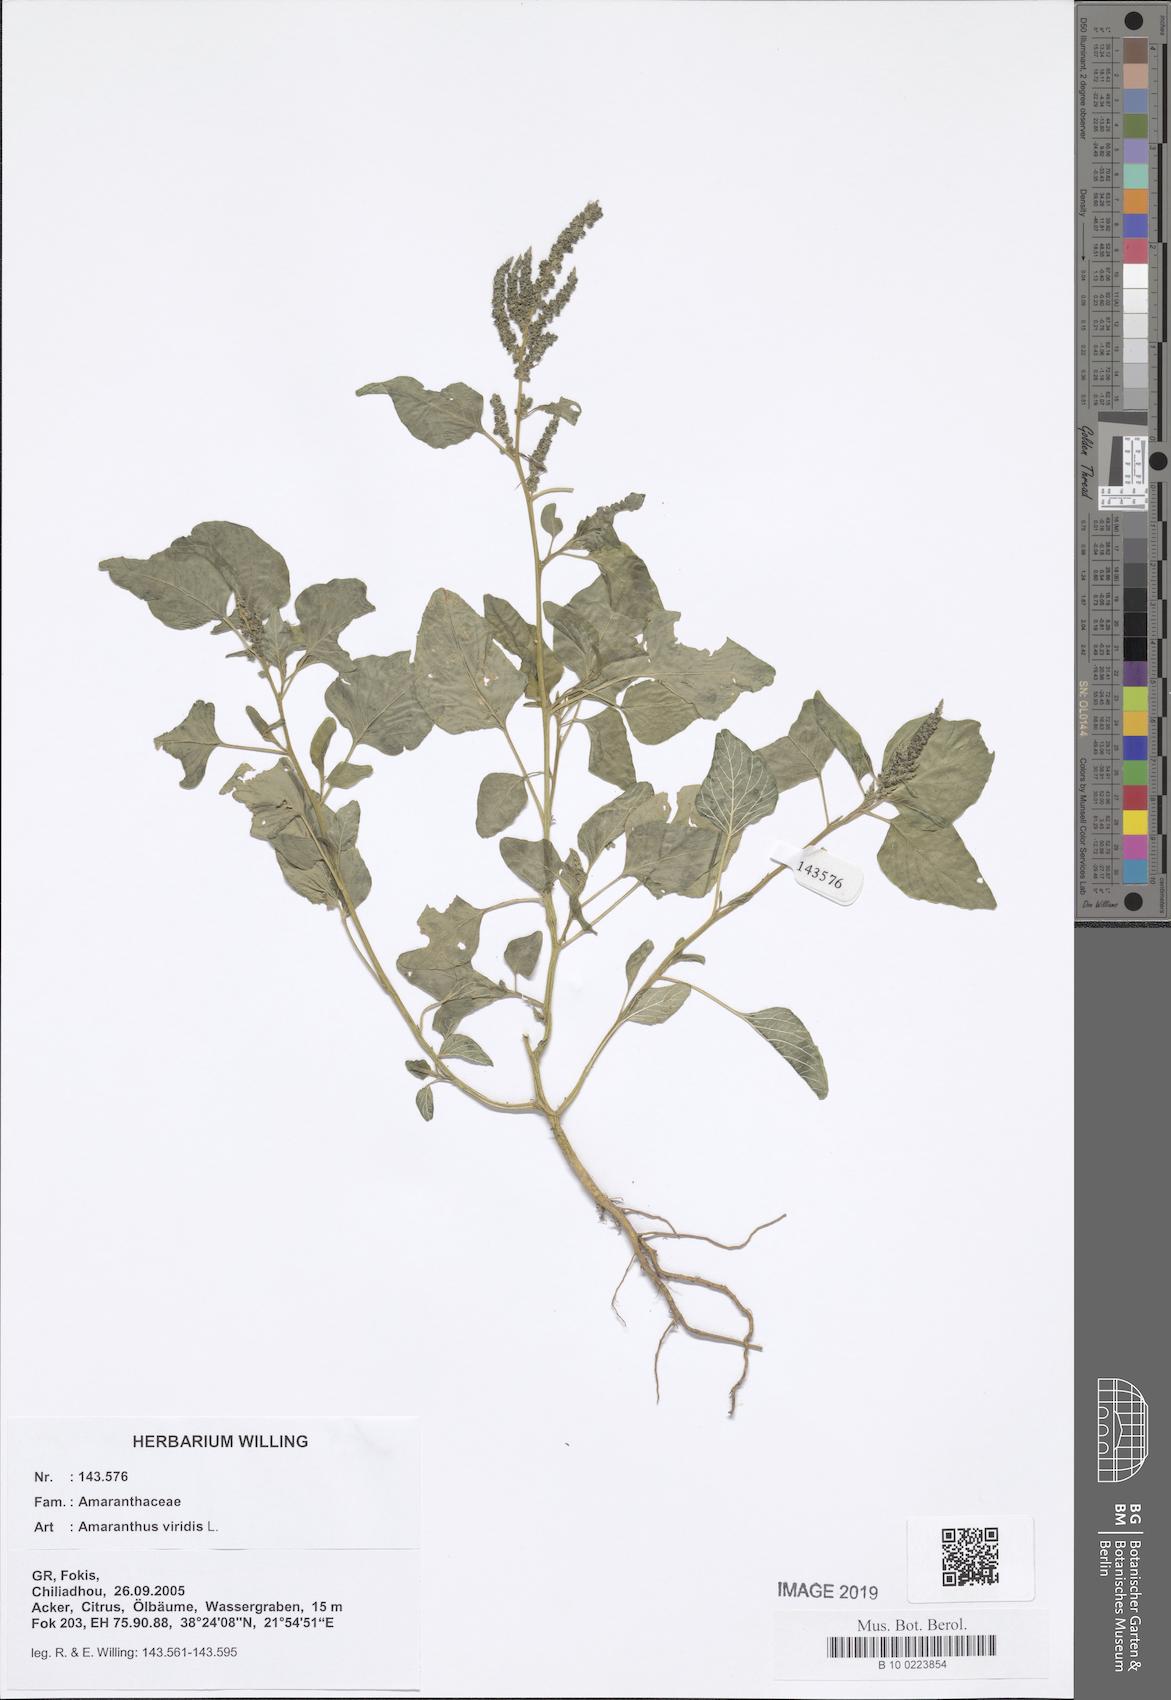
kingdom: Plantae
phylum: Tracheophyta
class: Magnoliopsida
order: Caryophyllales
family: Amaranthaceae
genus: Amaranthus
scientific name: Amaranthus viridis
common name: Slender amaranth
